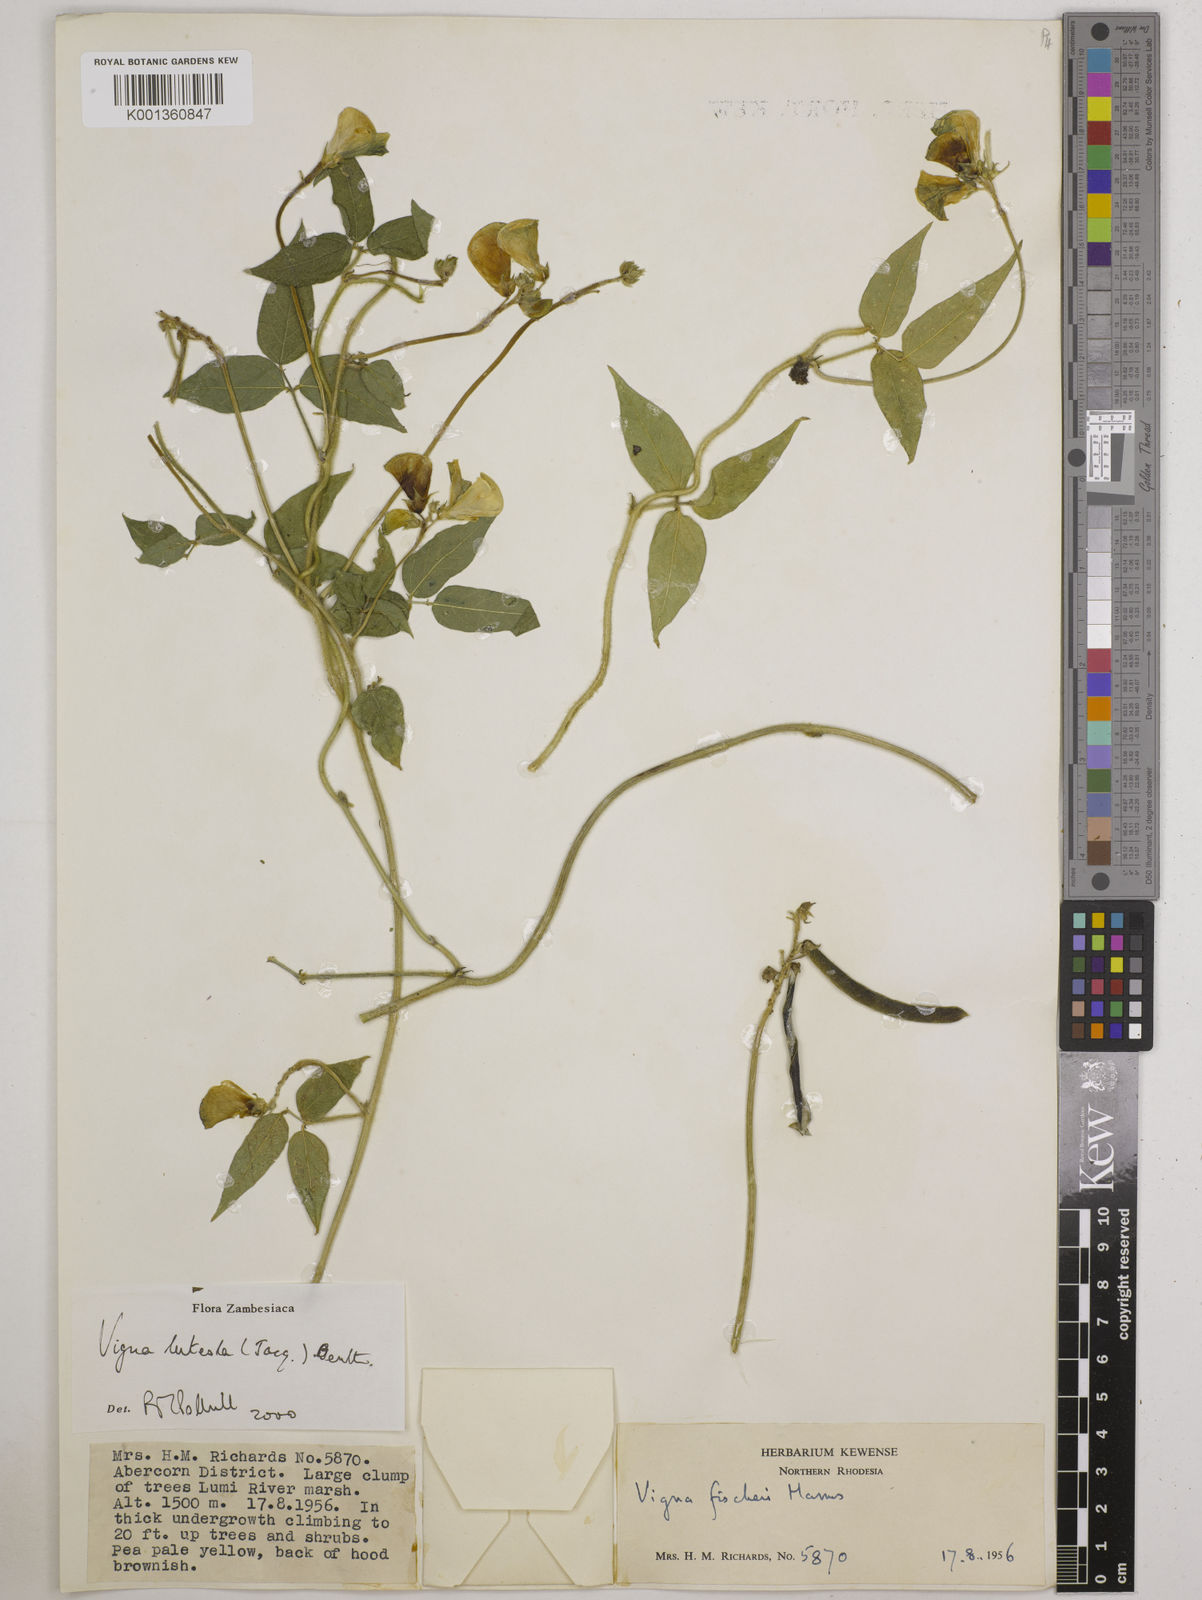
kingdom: Plantae
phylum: Tracheophyta
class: Magnoliopsida
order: Fabales
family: Fabaceae
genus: Vigna
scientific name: Vigna luteola
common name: Hairypod cowpea
